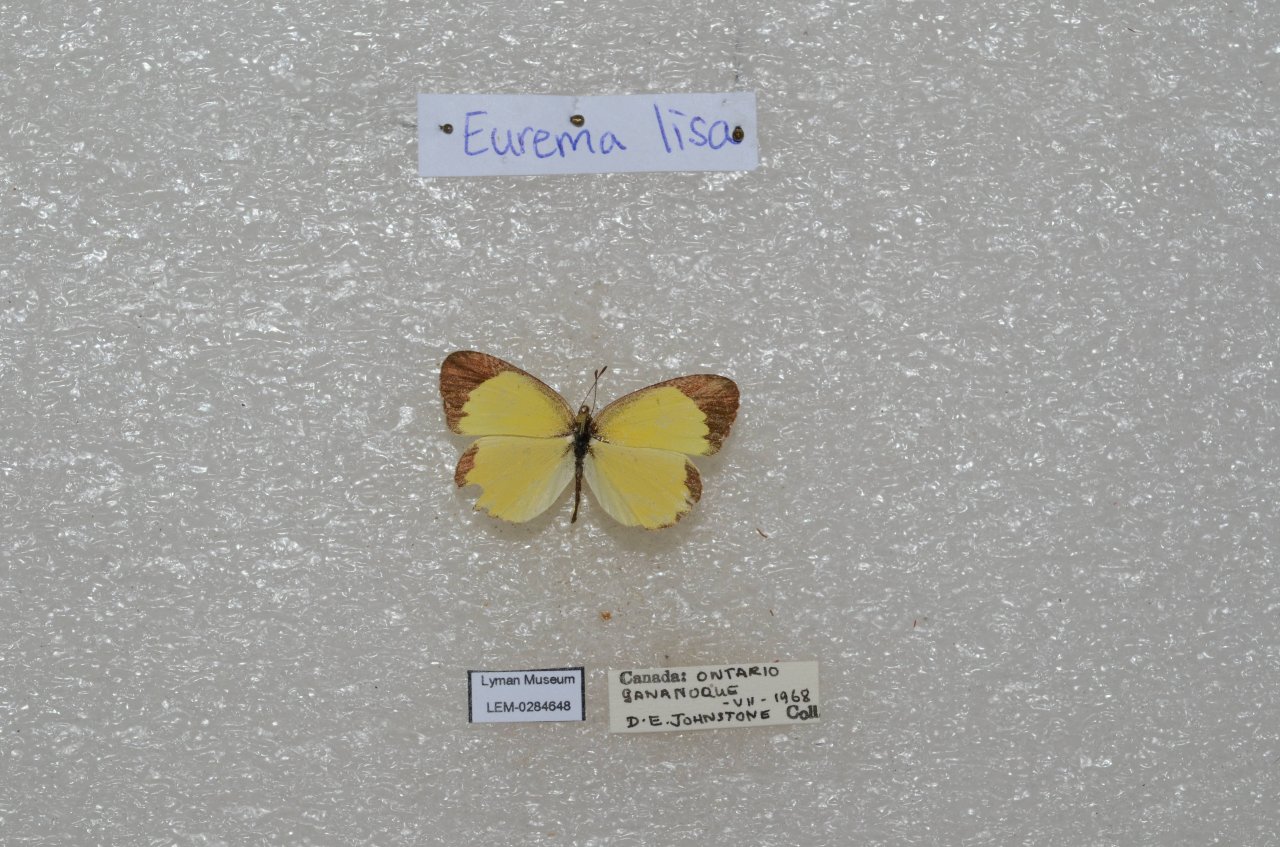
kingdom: Animalia
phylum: Arthropoda
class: Insecta
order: Lepidoptera
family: Pieridae
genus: Pyrisitia
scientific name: Pyrisitia lisa
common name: Little Yellow
